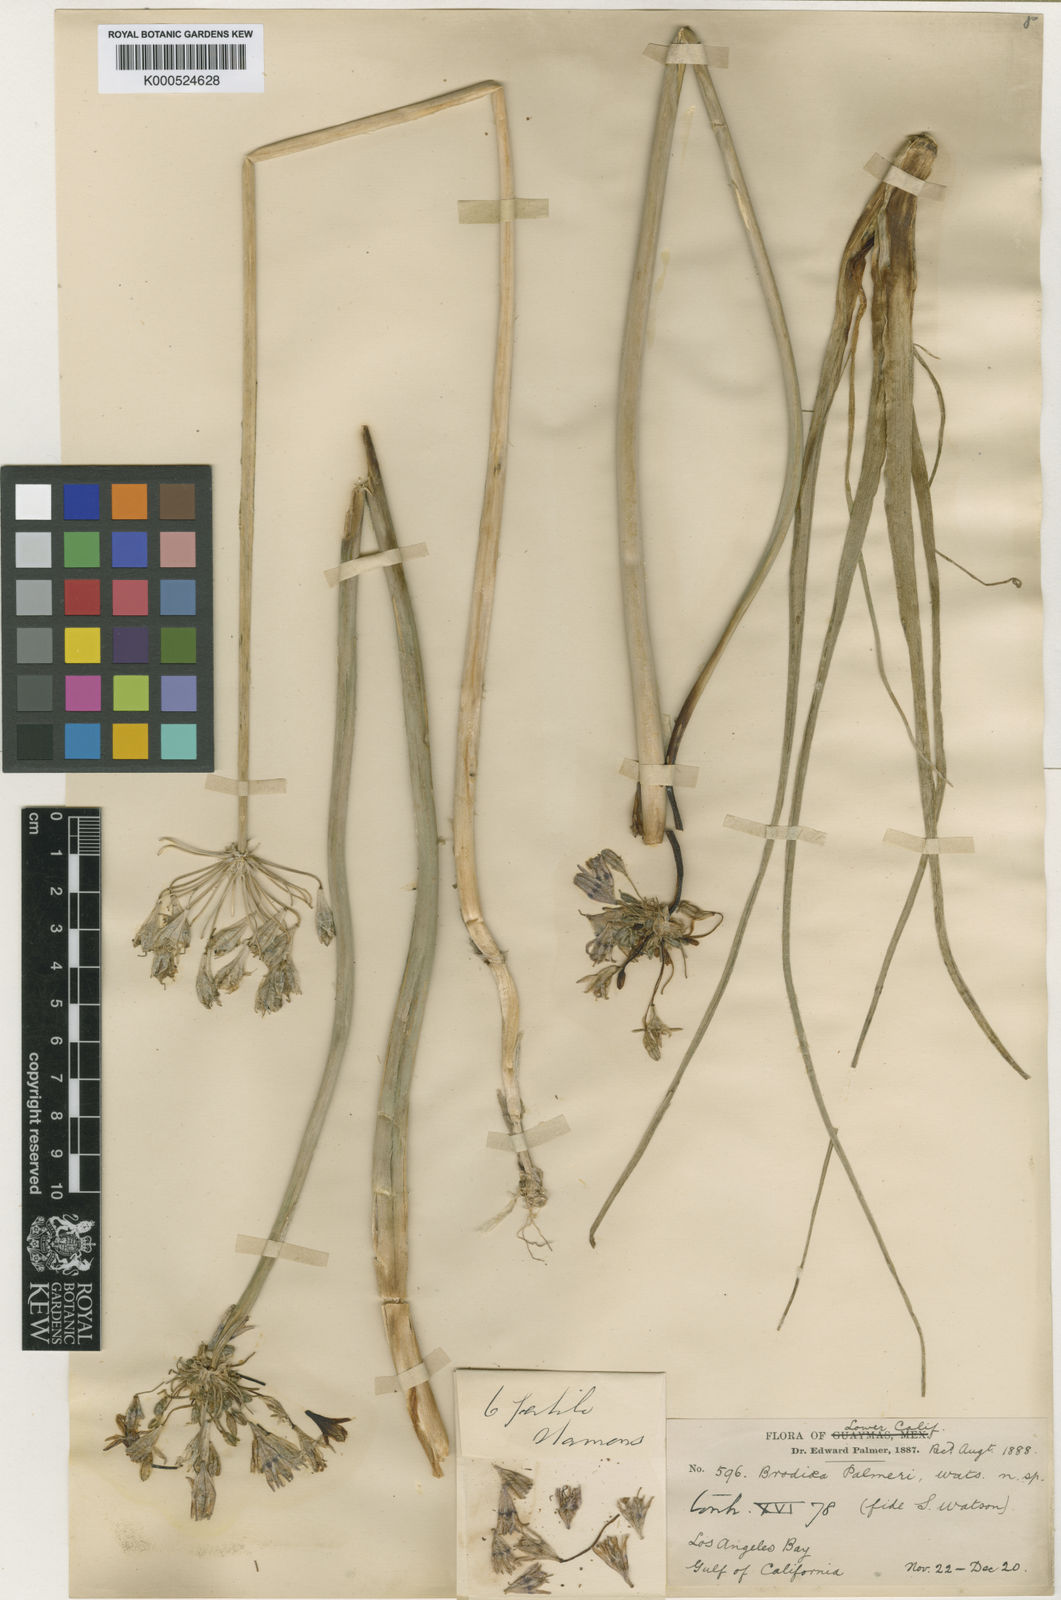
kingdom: Plantae
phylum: Tracheophyta
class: Liliopsida
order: Asparagales
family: Asparagaceae
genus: Triteleiopsis
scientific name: Triteleiopsis palmeri
